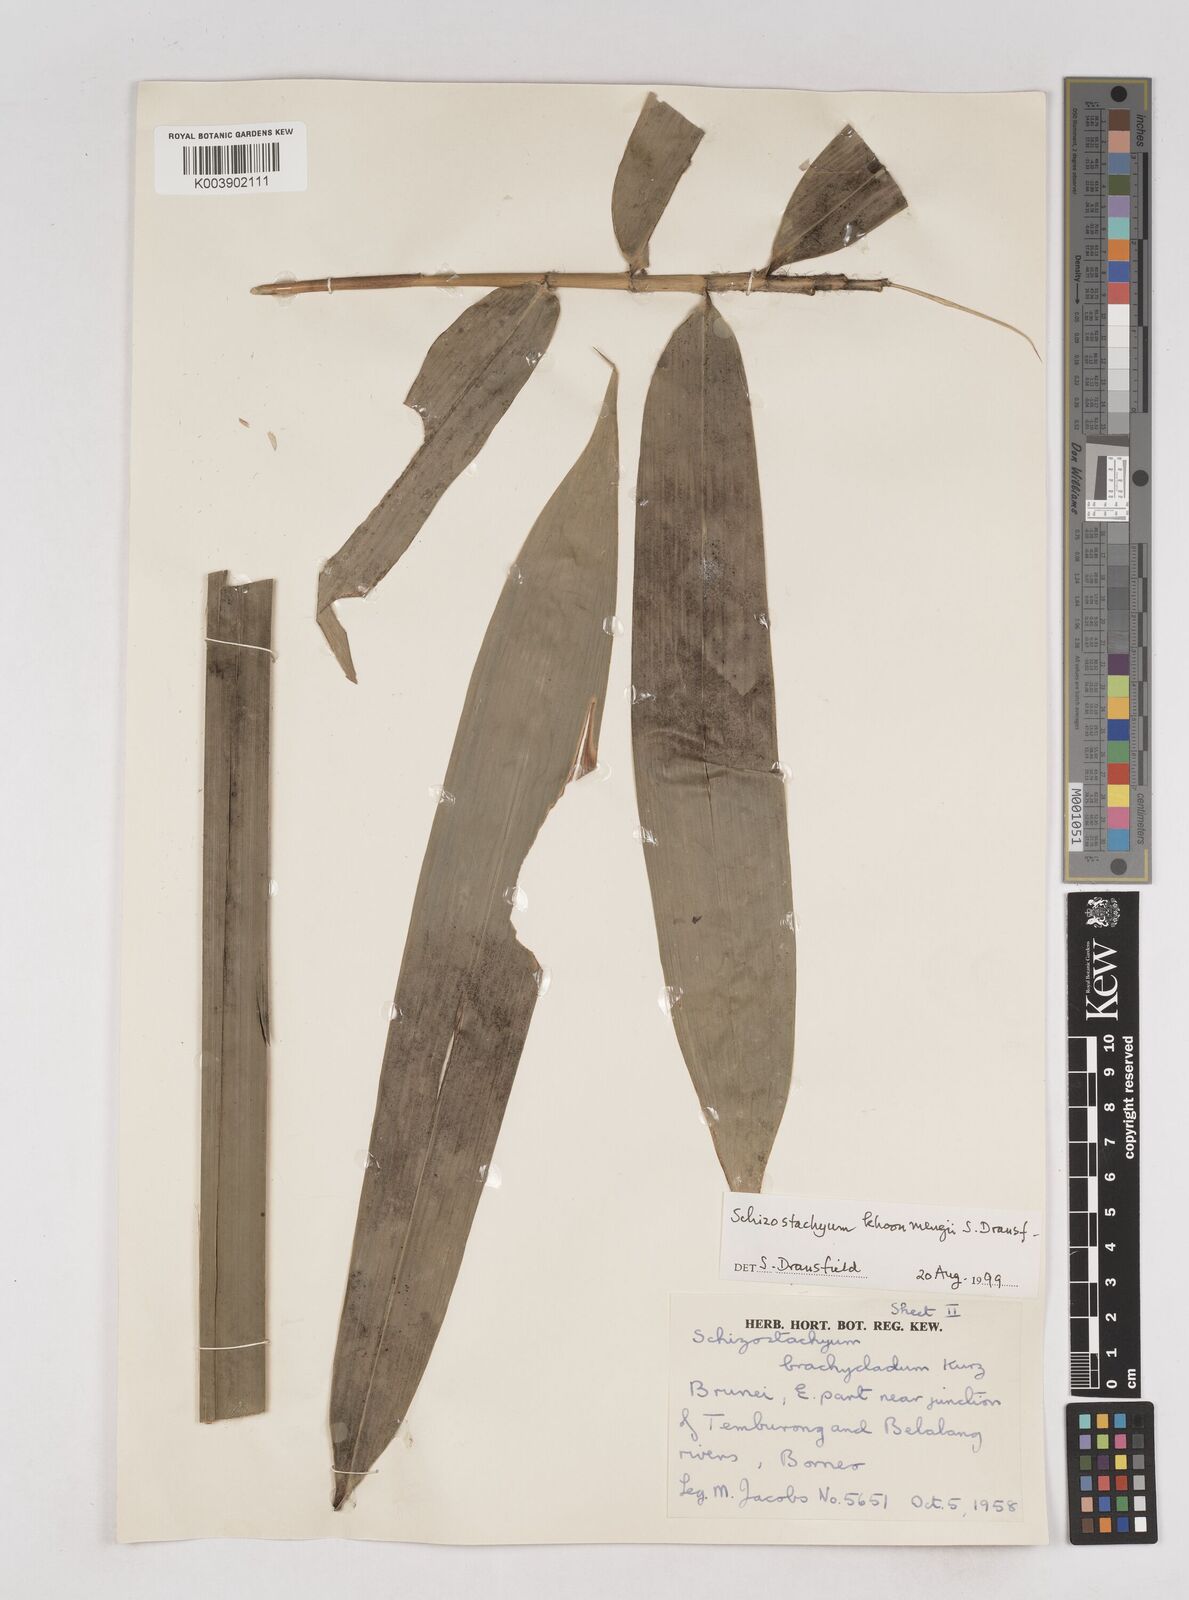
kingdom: Plantae
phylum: Tracheophyta
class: Liliopsida
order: Poales
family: Poaceae
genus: Schizostachyum
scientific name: Schizostachyum khoonmengii
